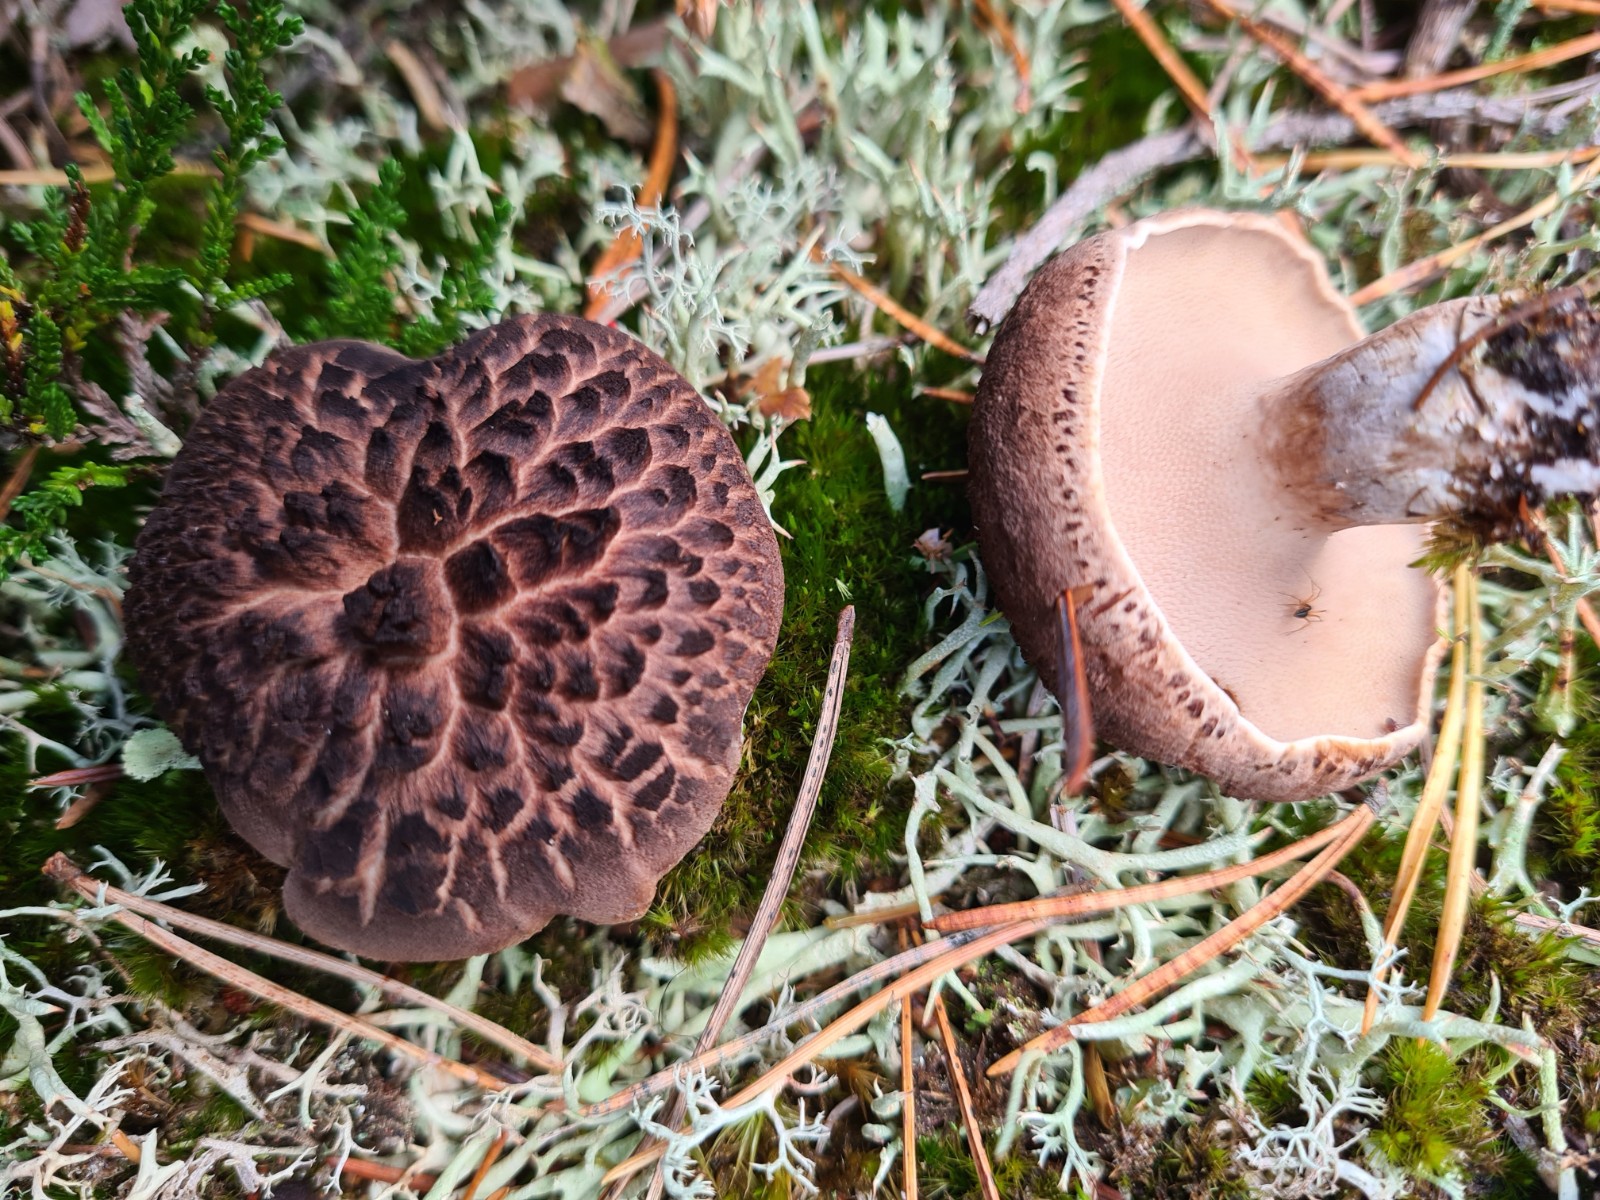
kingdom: Fungi
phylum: Basidiomycota
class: Agaricomycetes
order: Thelephorales
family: Bankeraceae
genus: Sarcodon
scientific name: Sarcodon squamosus
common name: småskællet kødpigsvamp
